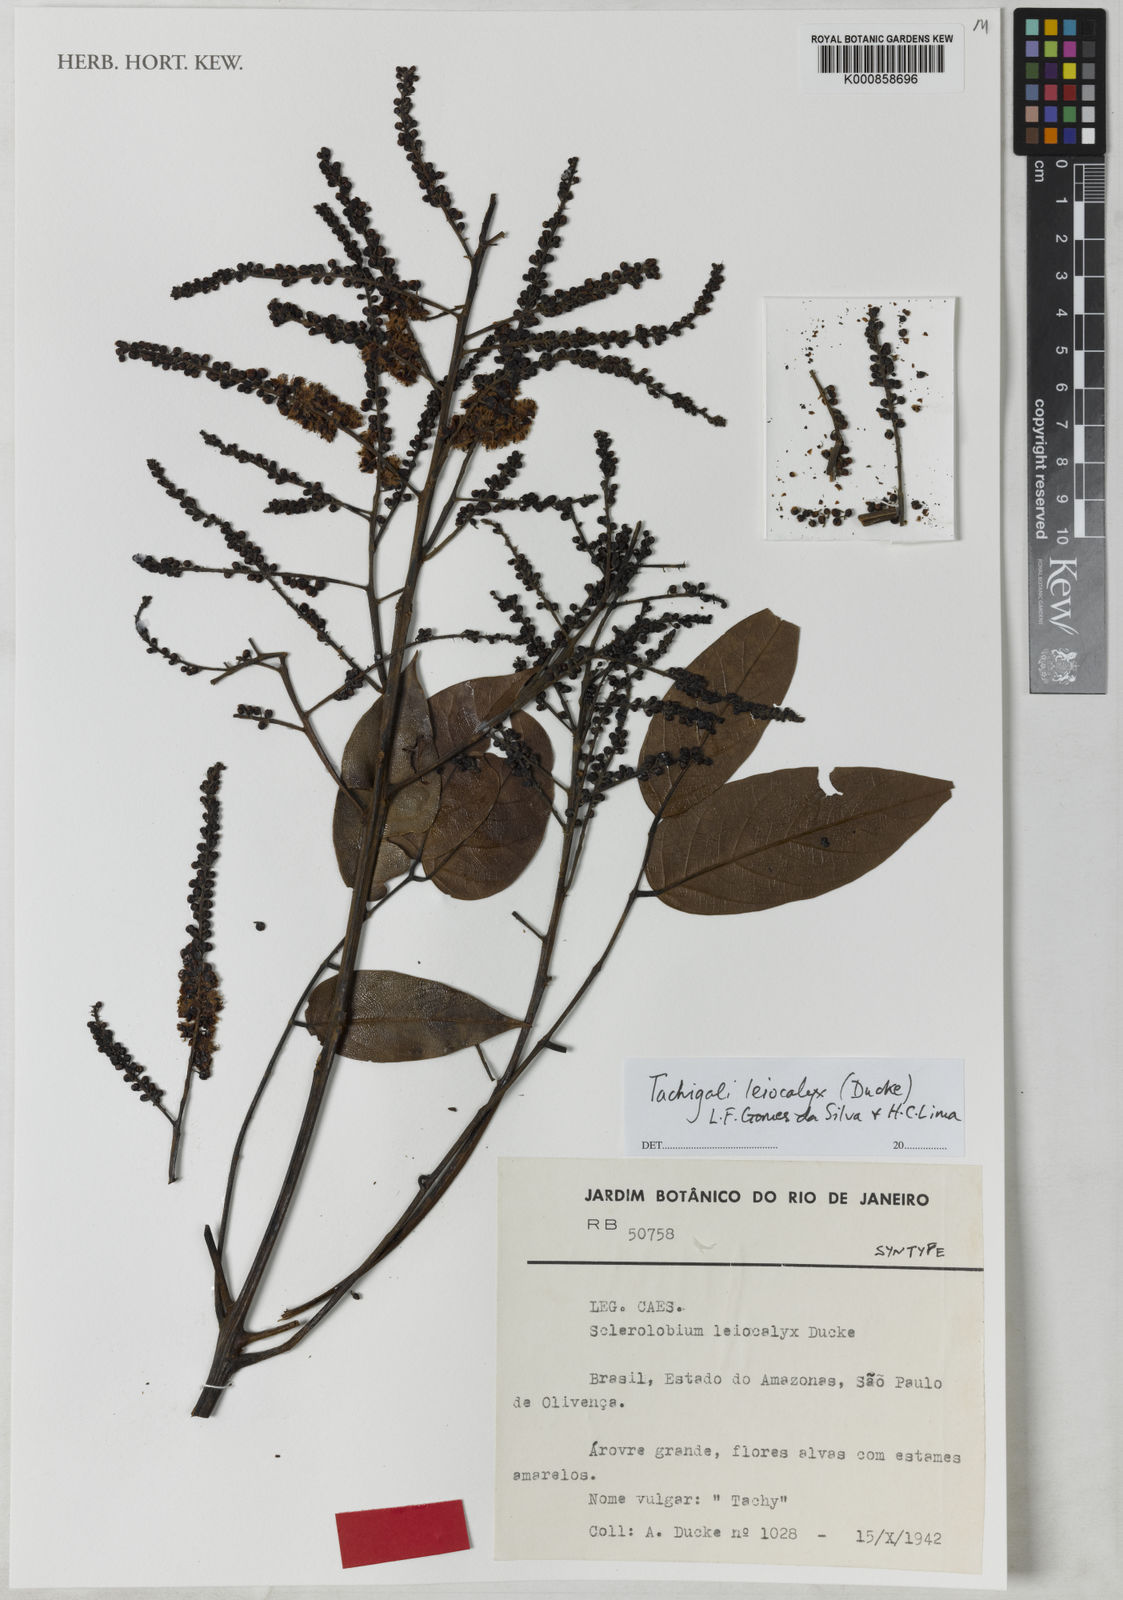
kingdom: Plantae
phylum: Tracheophyta
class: Magnoliopsida
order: Fabales
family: Fabaceae
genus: Tachigali
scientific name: Tachigali leiocalyx
